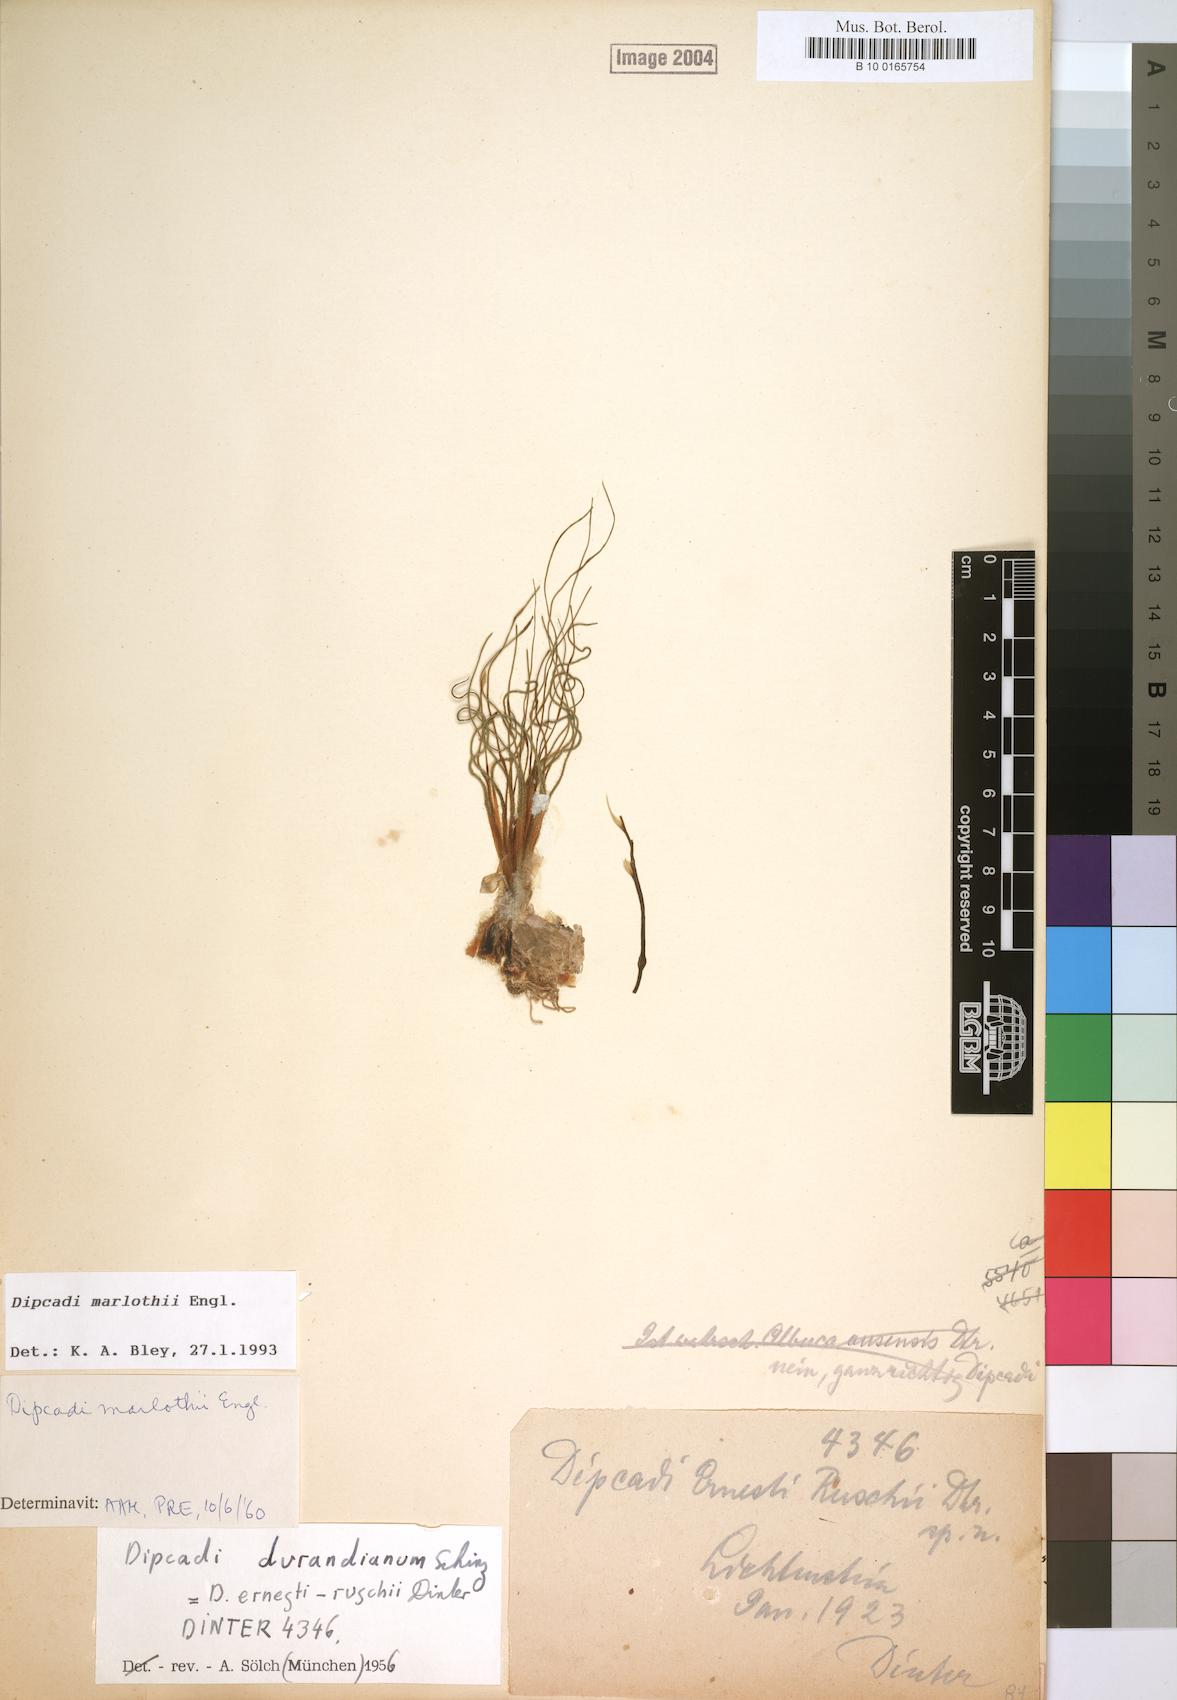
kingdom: Plantae
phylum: Tracheophyta
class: Liliopsida
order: Asparagales
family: Asparagaceae
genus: Dipcadi
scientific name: Dipcadi marlothii
